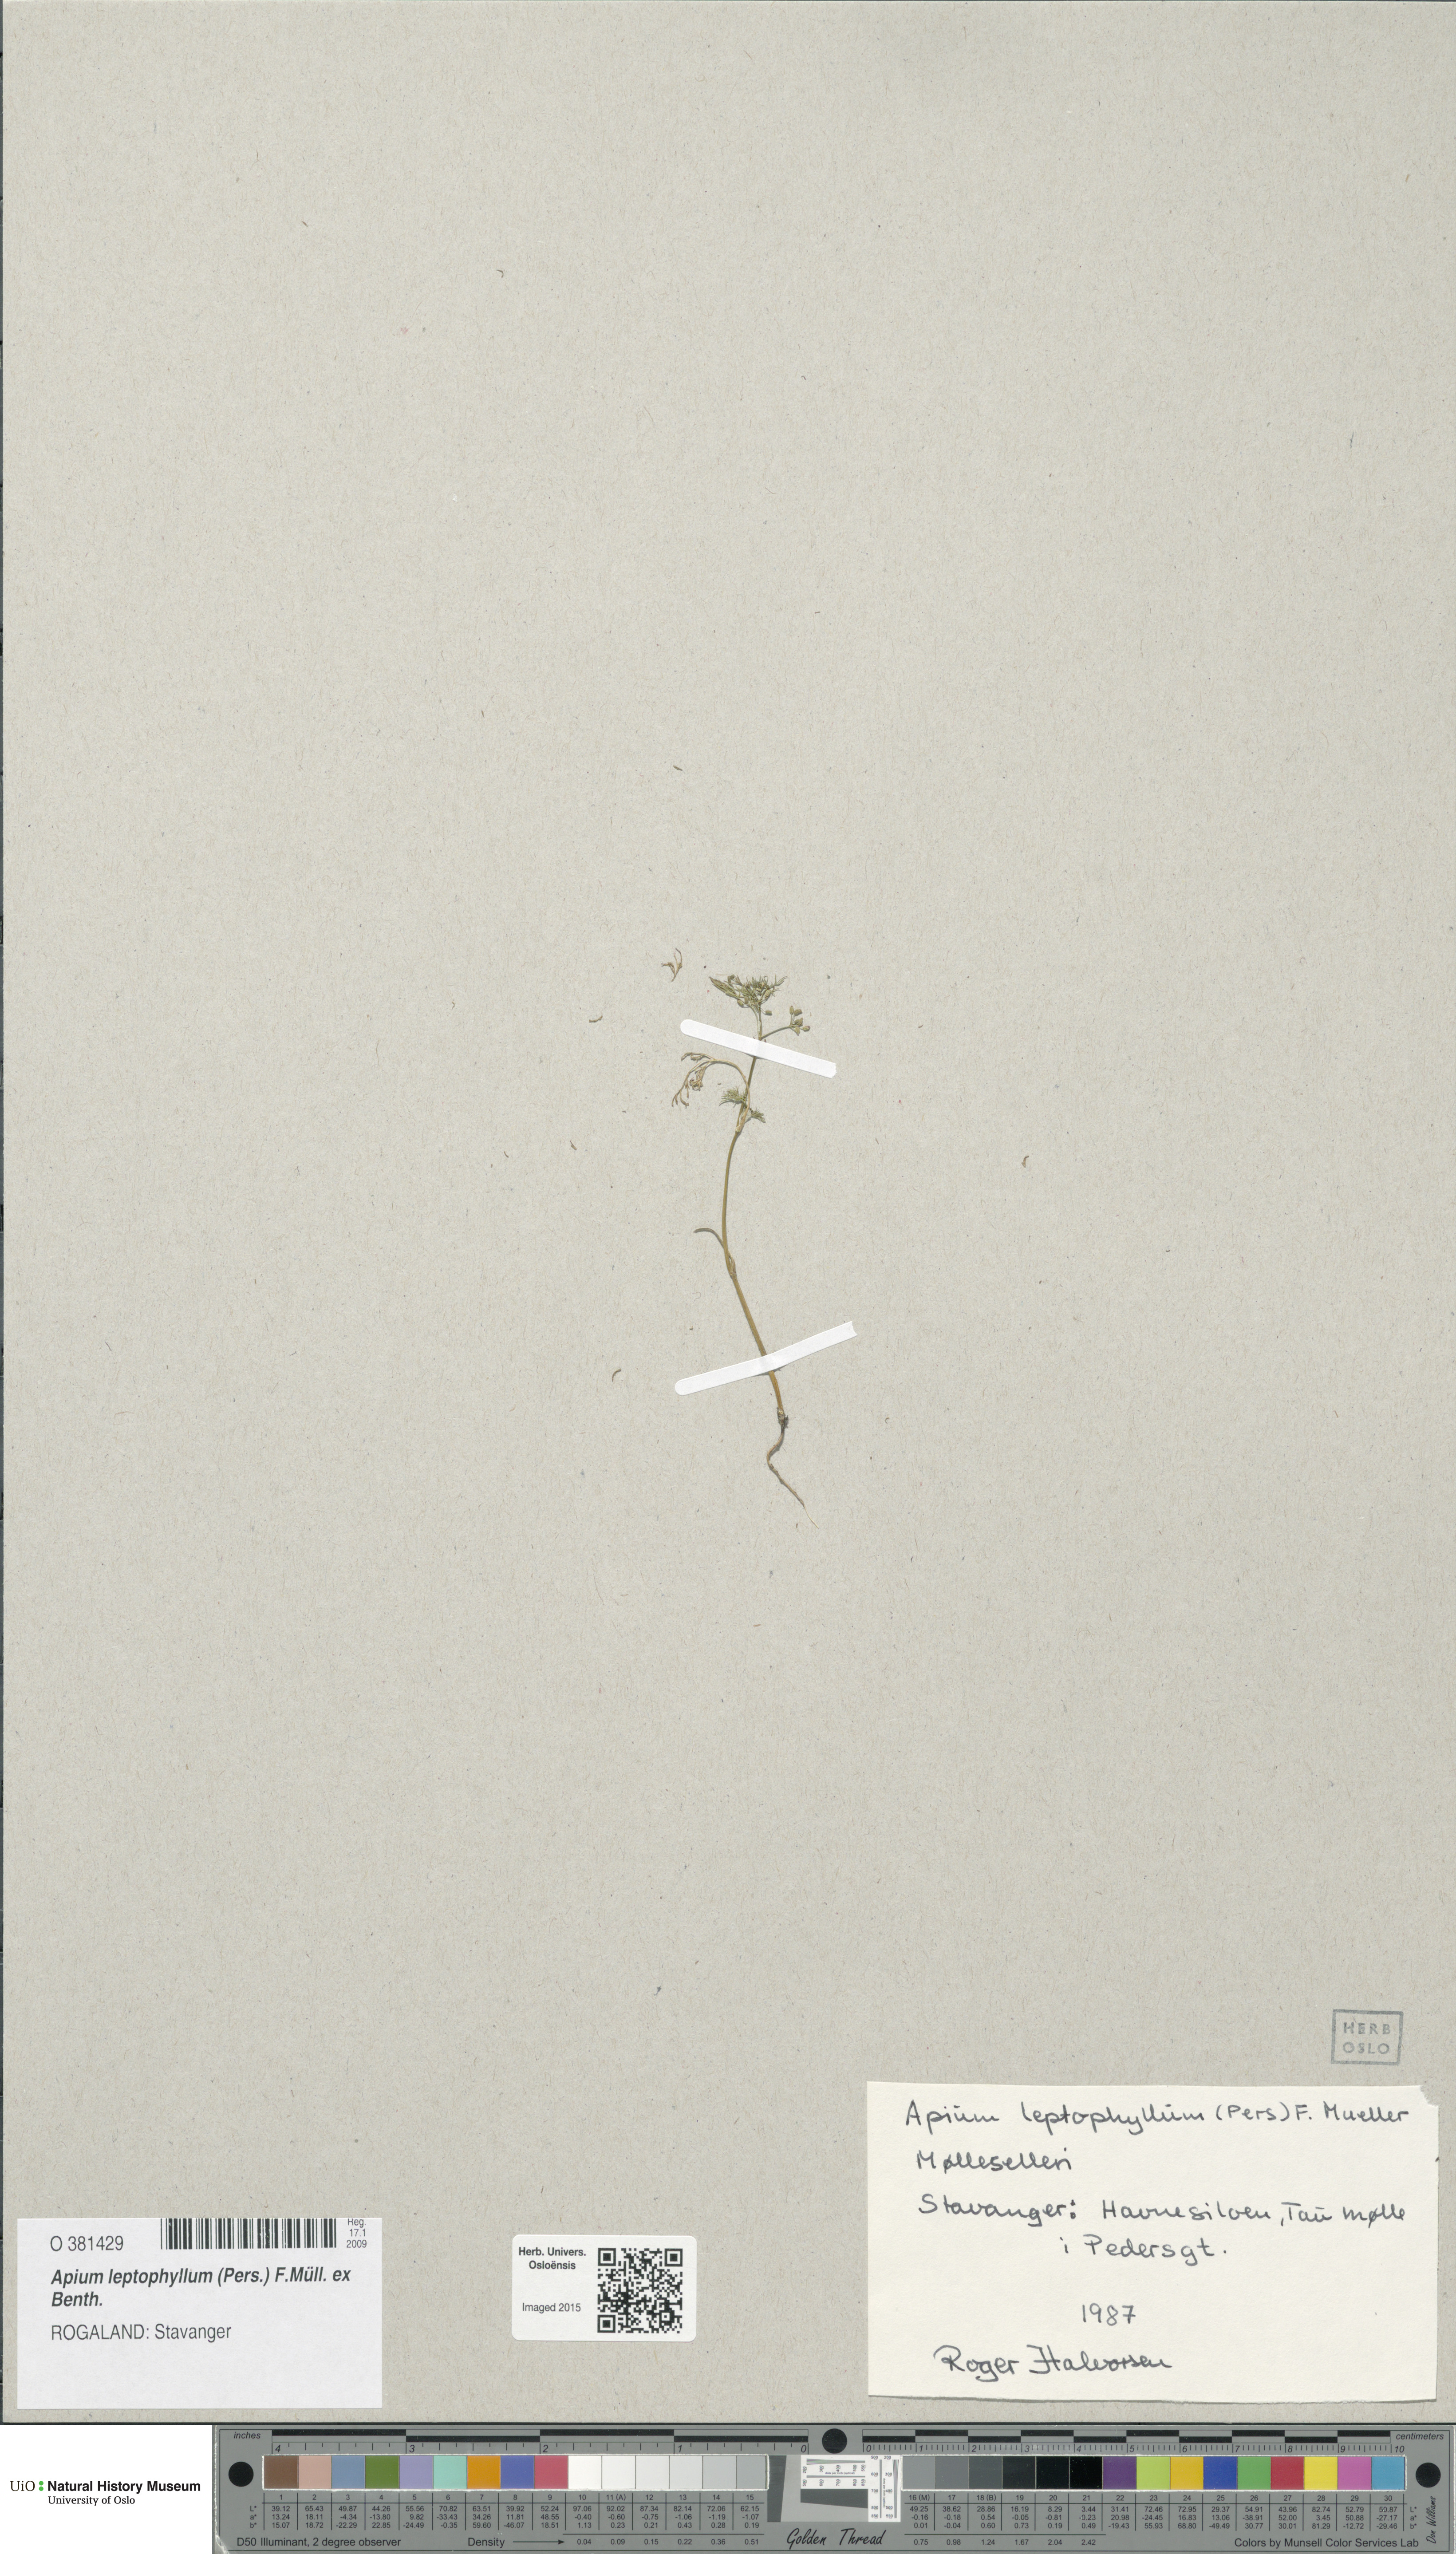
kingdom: Plantae
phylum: Tracheophyta
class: Magnoliopsida
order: Apiales
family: Apiaceae
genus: Cyclospermum
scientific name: Cyclospermum leptophyllum
